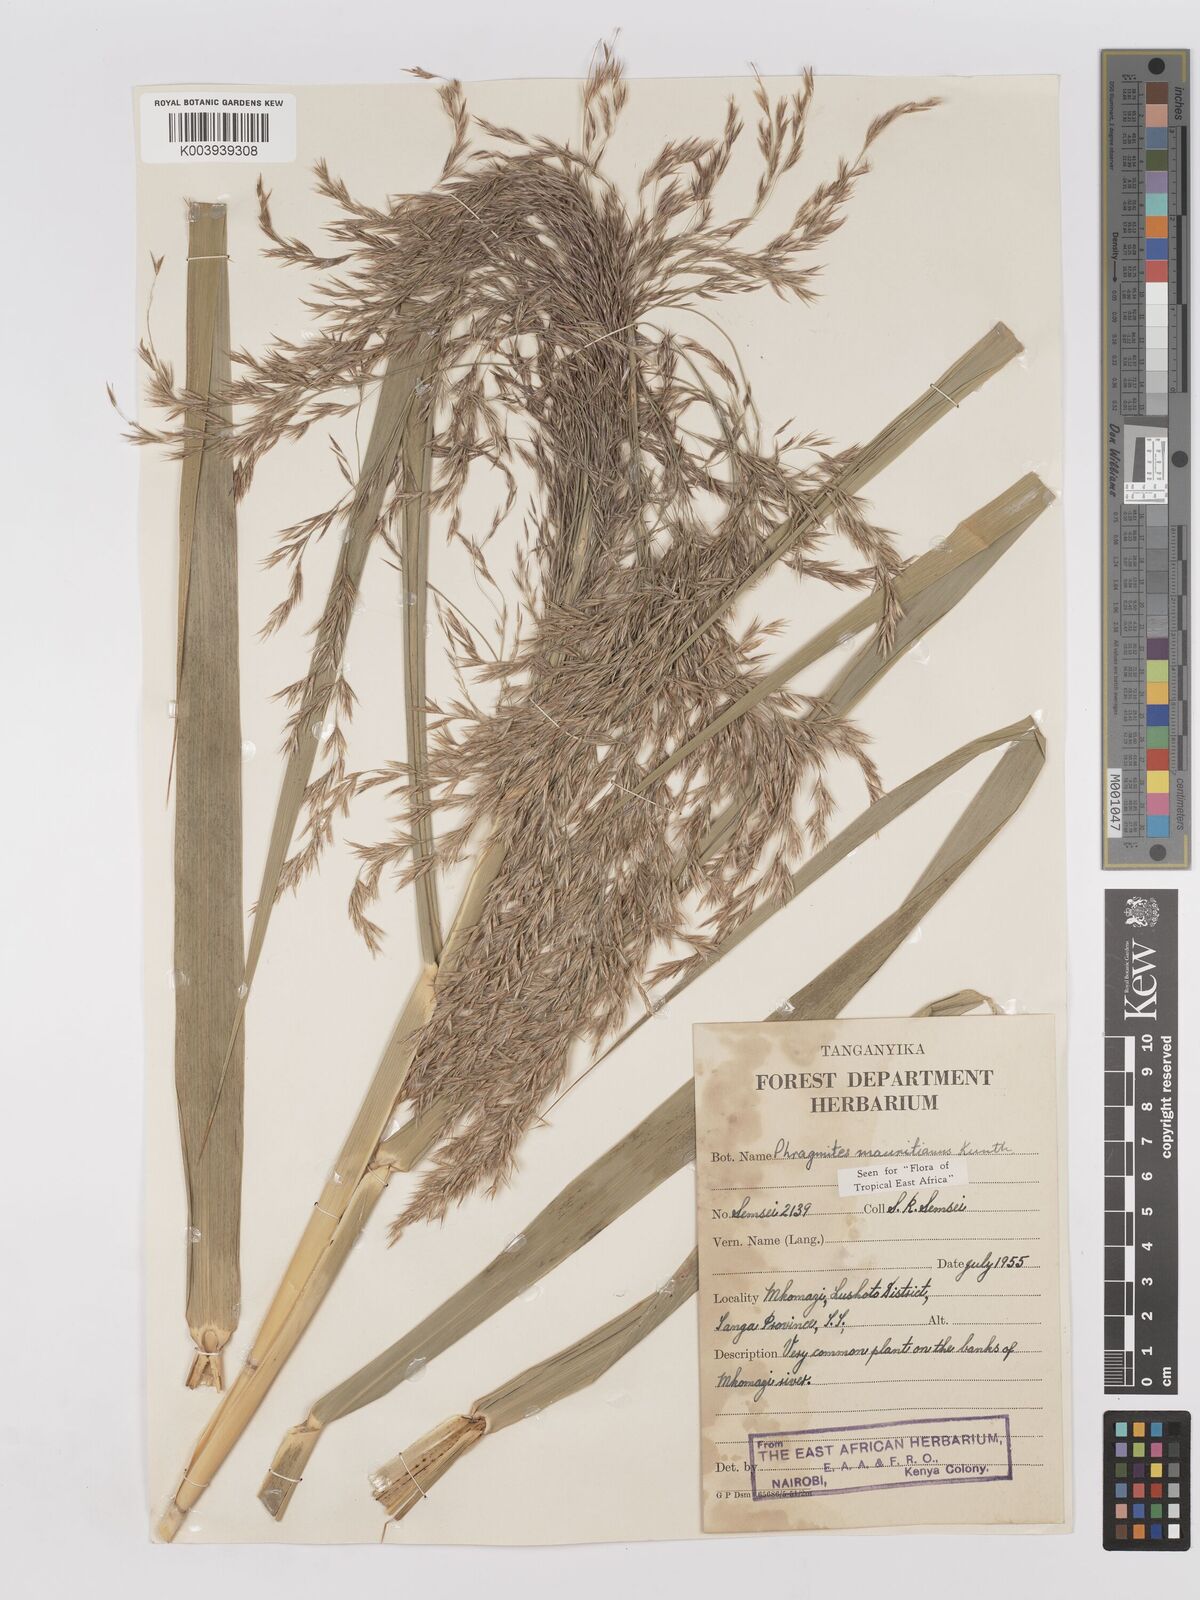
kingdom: Plantae
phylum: Tracheophyta
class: Liliopsida
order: Poales
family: Poaceae
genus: Phragmites
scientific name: Phragmites mauritianus
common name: Reed grass
